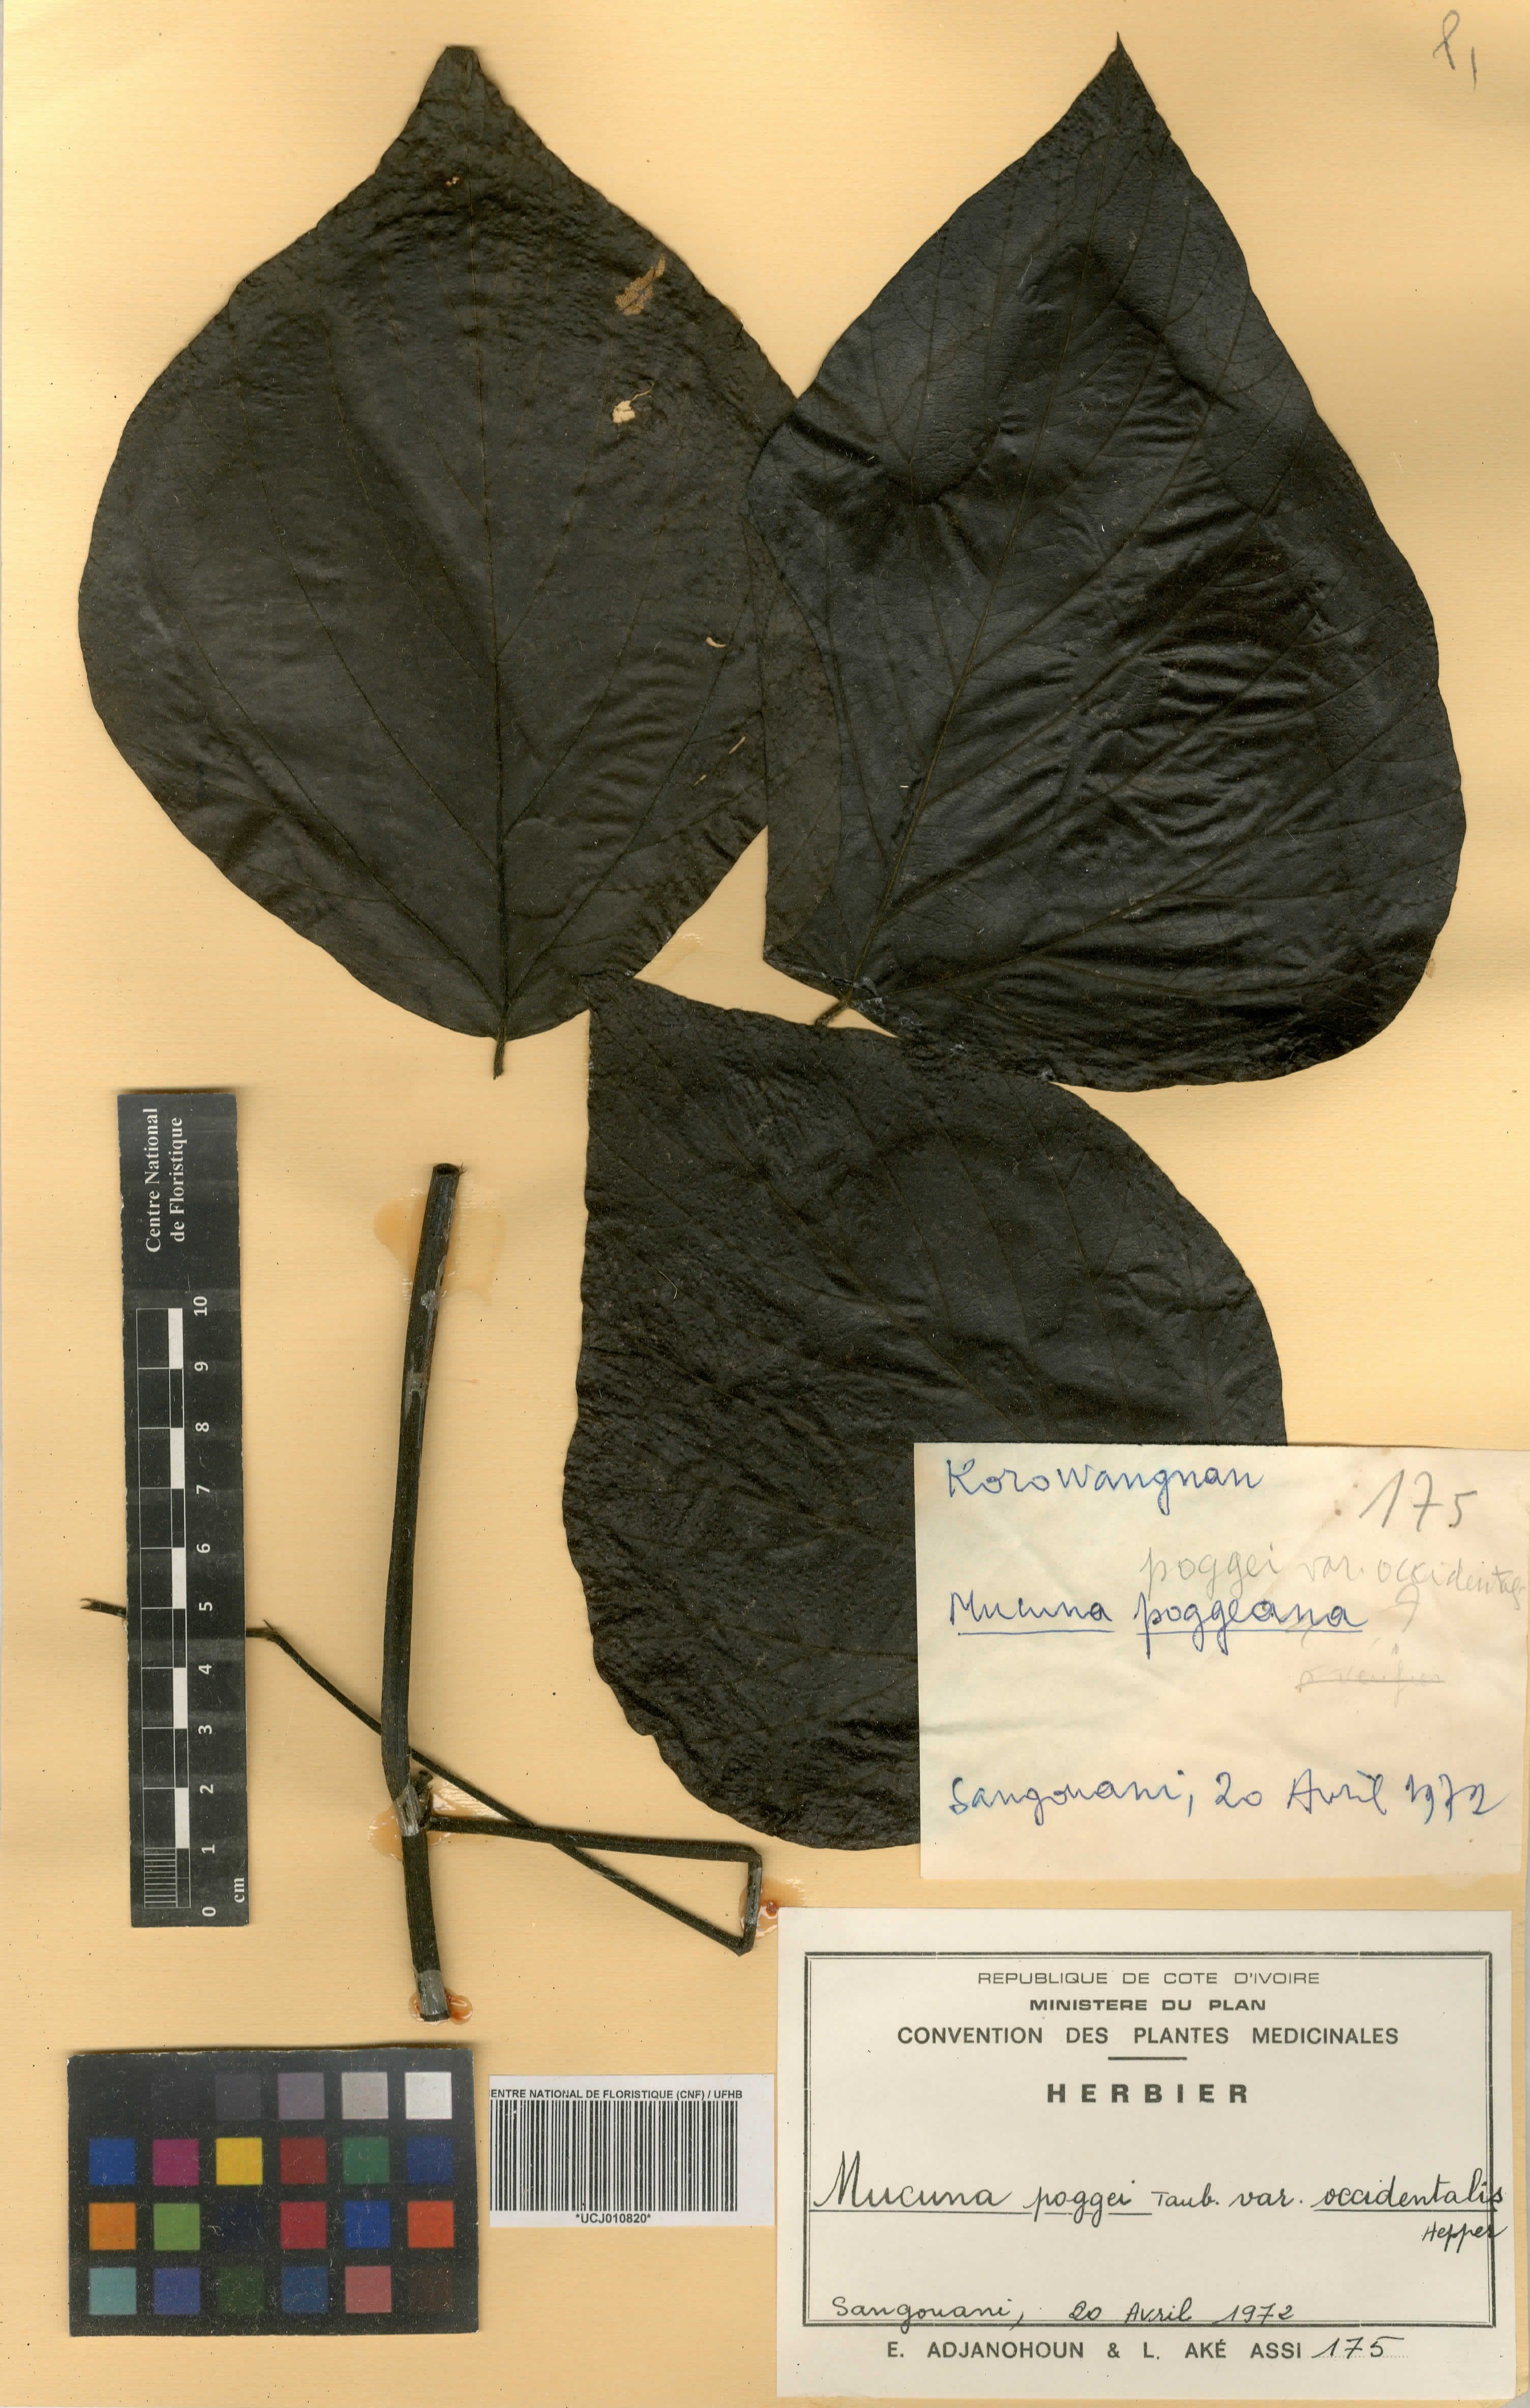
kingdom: Plantae
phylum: Tracheophyta
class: Magnoliopsida
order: Fabales
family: Fabaceae
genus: Mucuna
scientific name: Mucuna occidentalis
